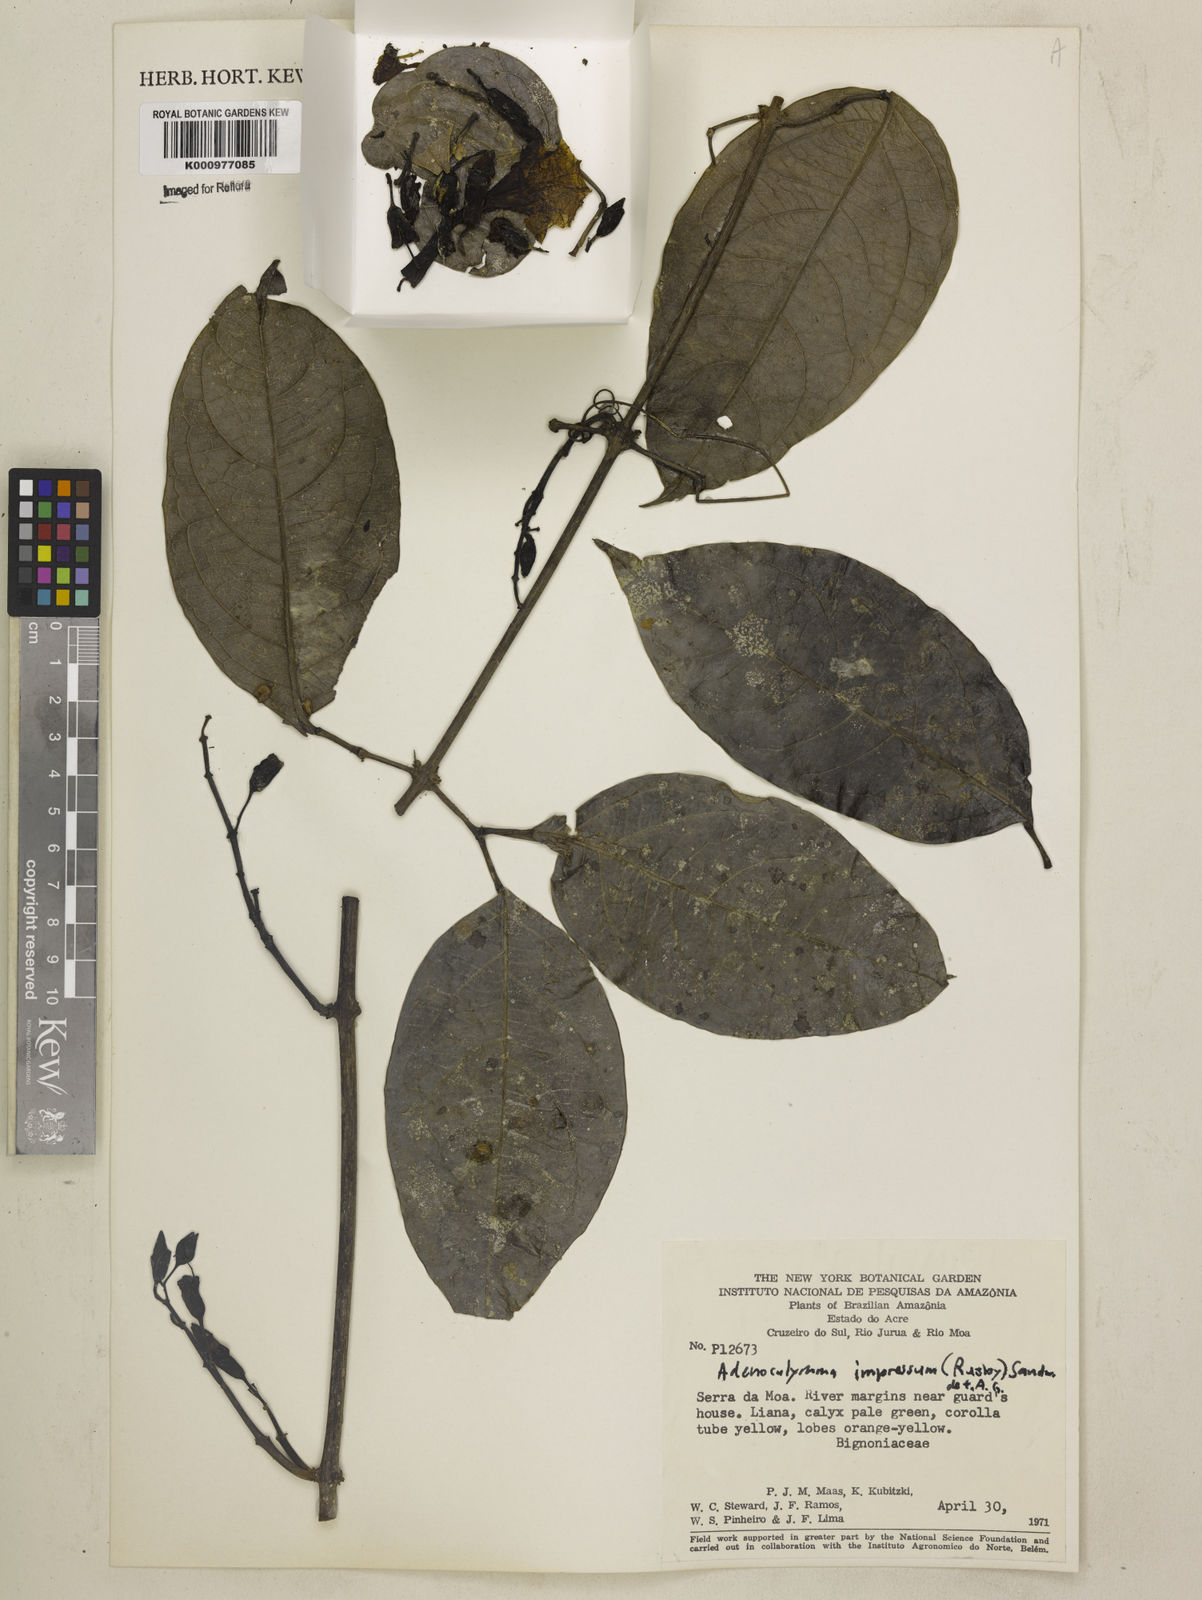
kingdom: Plantae
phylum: Tracheophyta
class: Magnoliopsida
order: Lamiales
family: Bignoniaceae
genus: Adenocalymma
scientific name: Adenocalymma impressum
